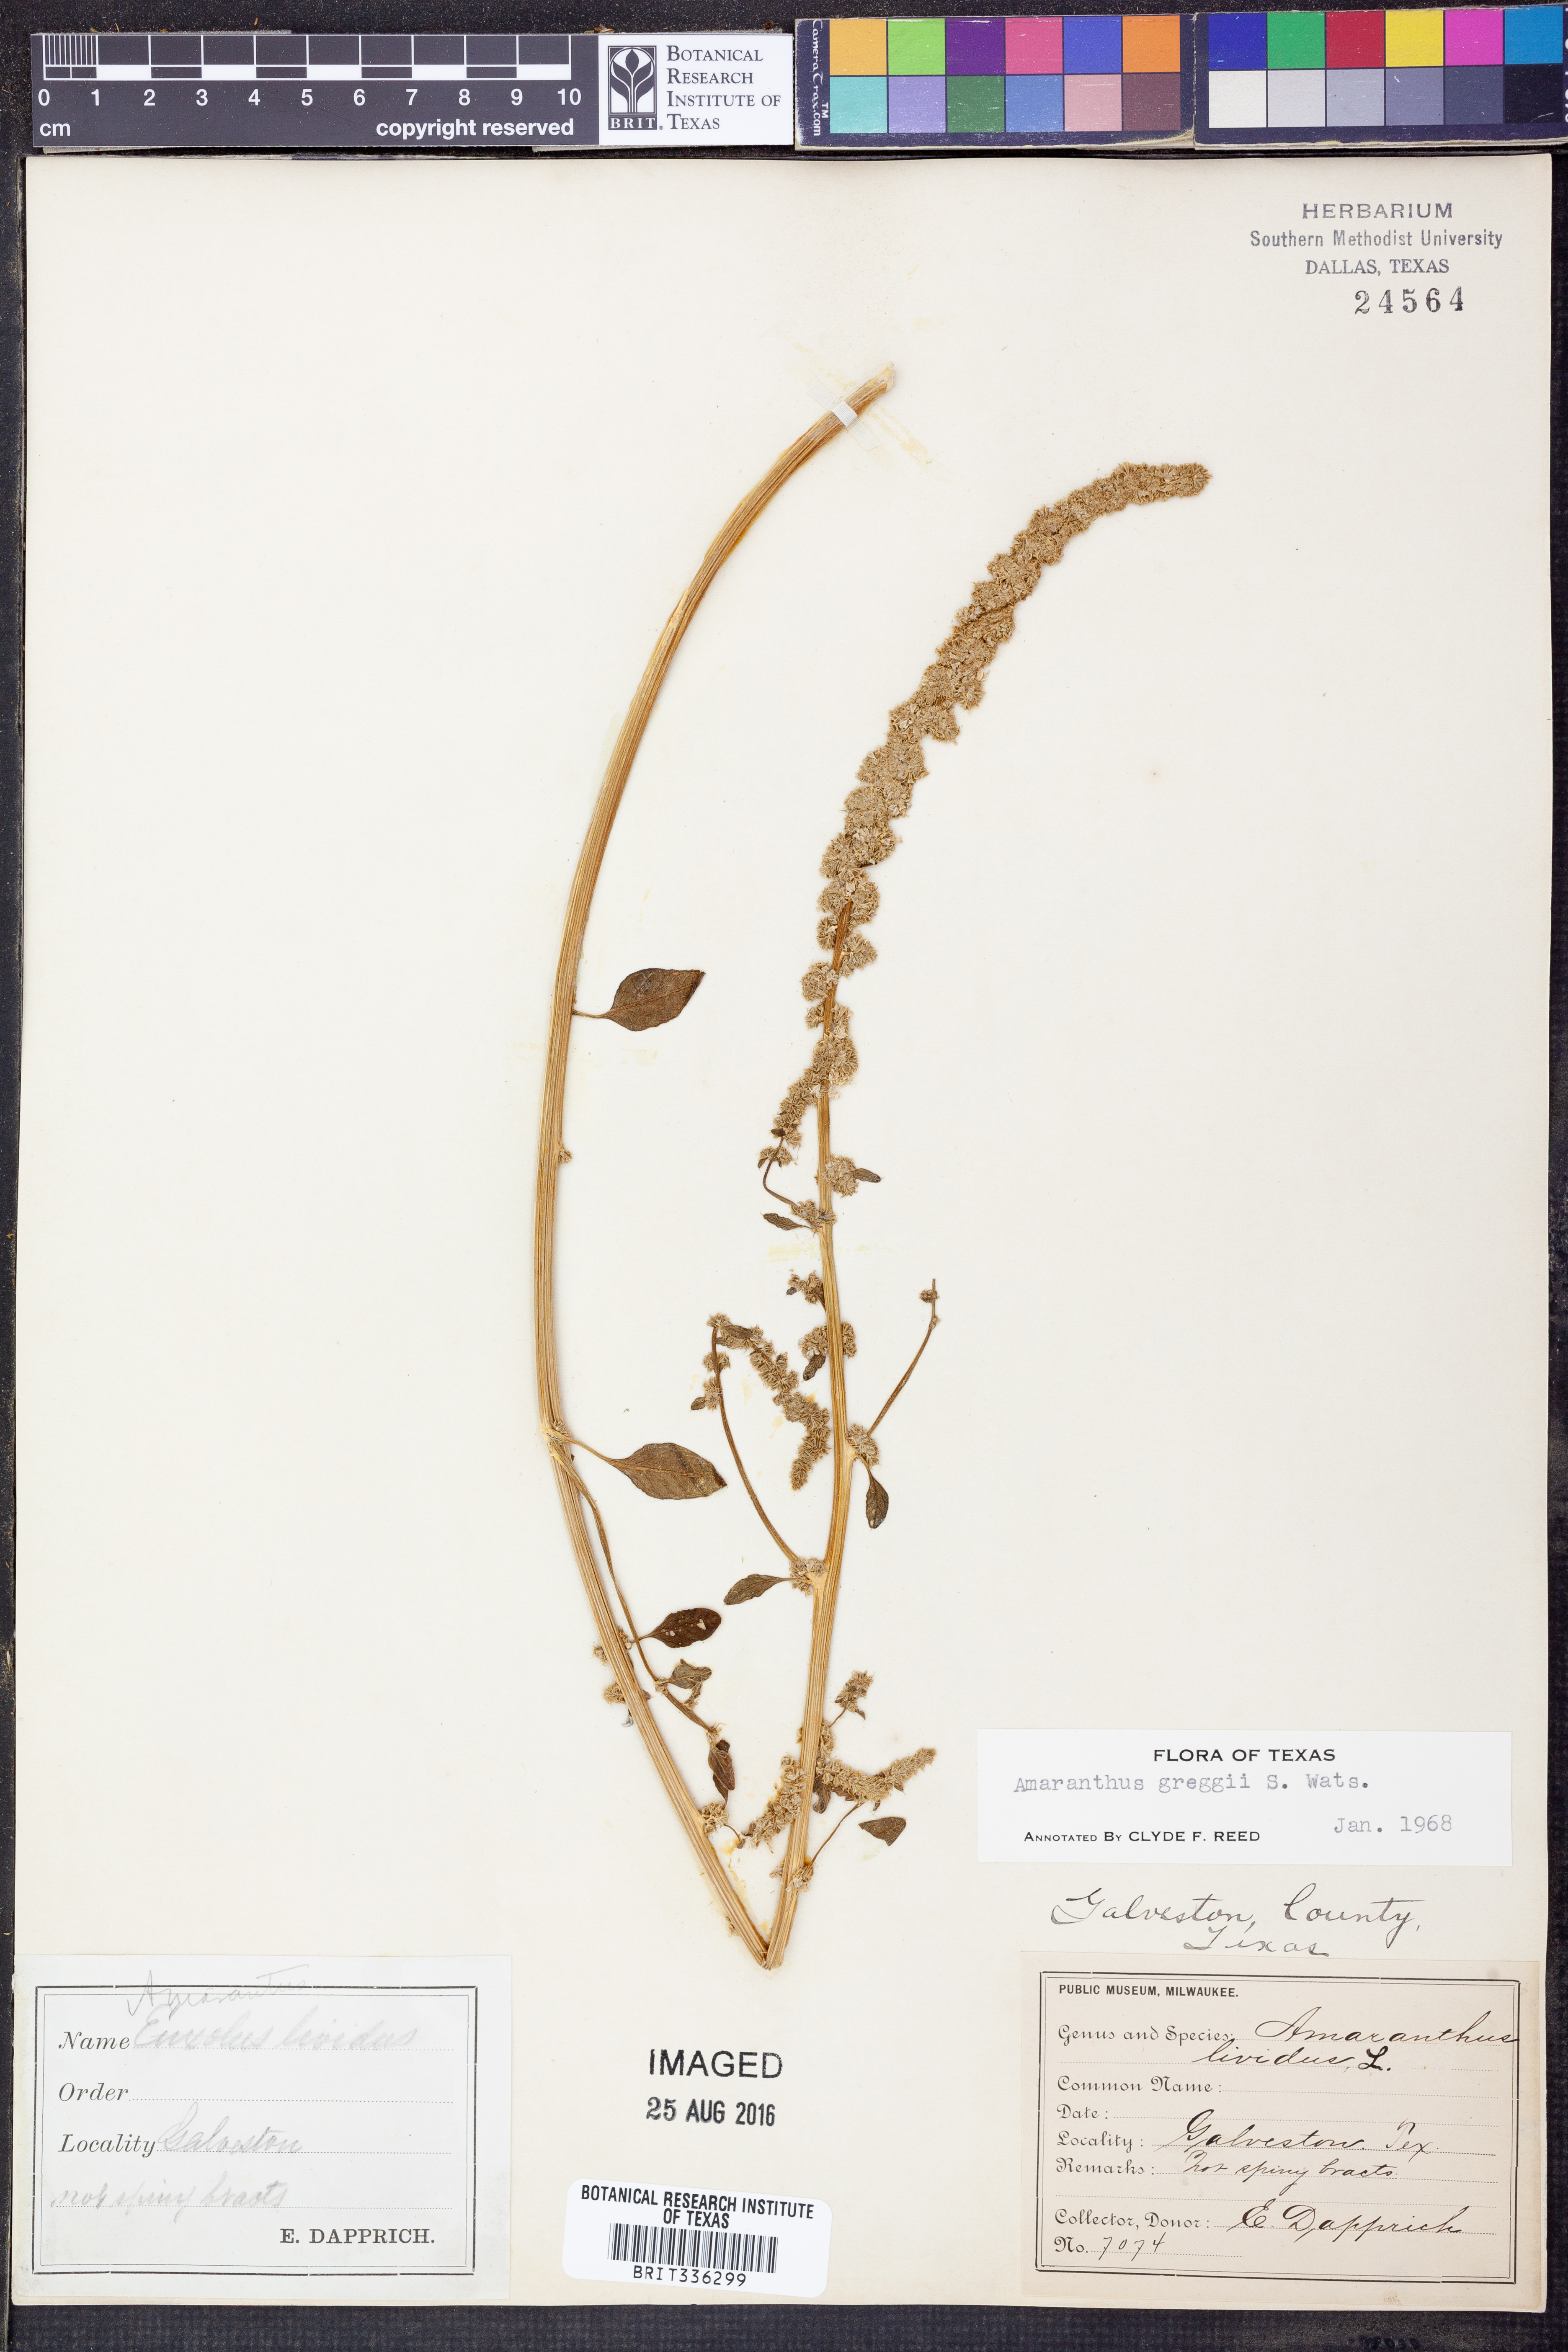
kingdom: Plantae
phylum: Tracheophyta
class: Magnoliopsida
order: Caryophyllales
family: Amaranthaceae
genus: Amaranthus
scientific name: Amaranthus greggii
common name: Josiah amaranth
